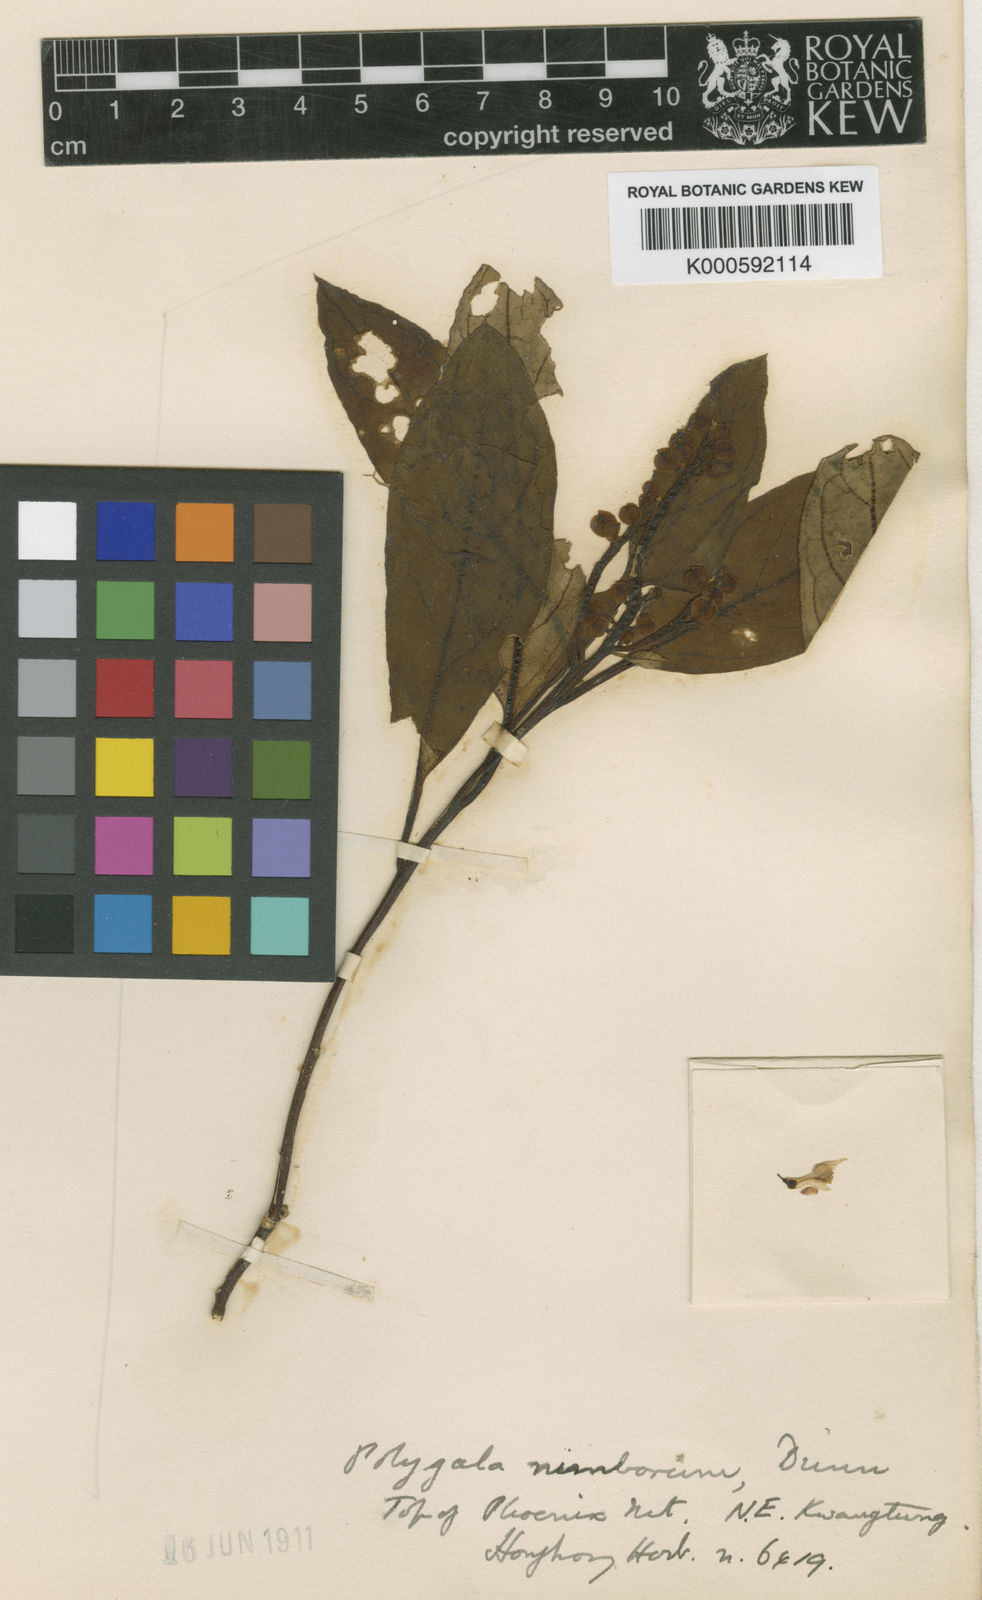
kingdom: Plantae
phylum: Tracheophyta
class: Magnoliopsida
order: Fabales
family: Polygalaceae
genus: Polygala
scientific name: Polygala latouchei
